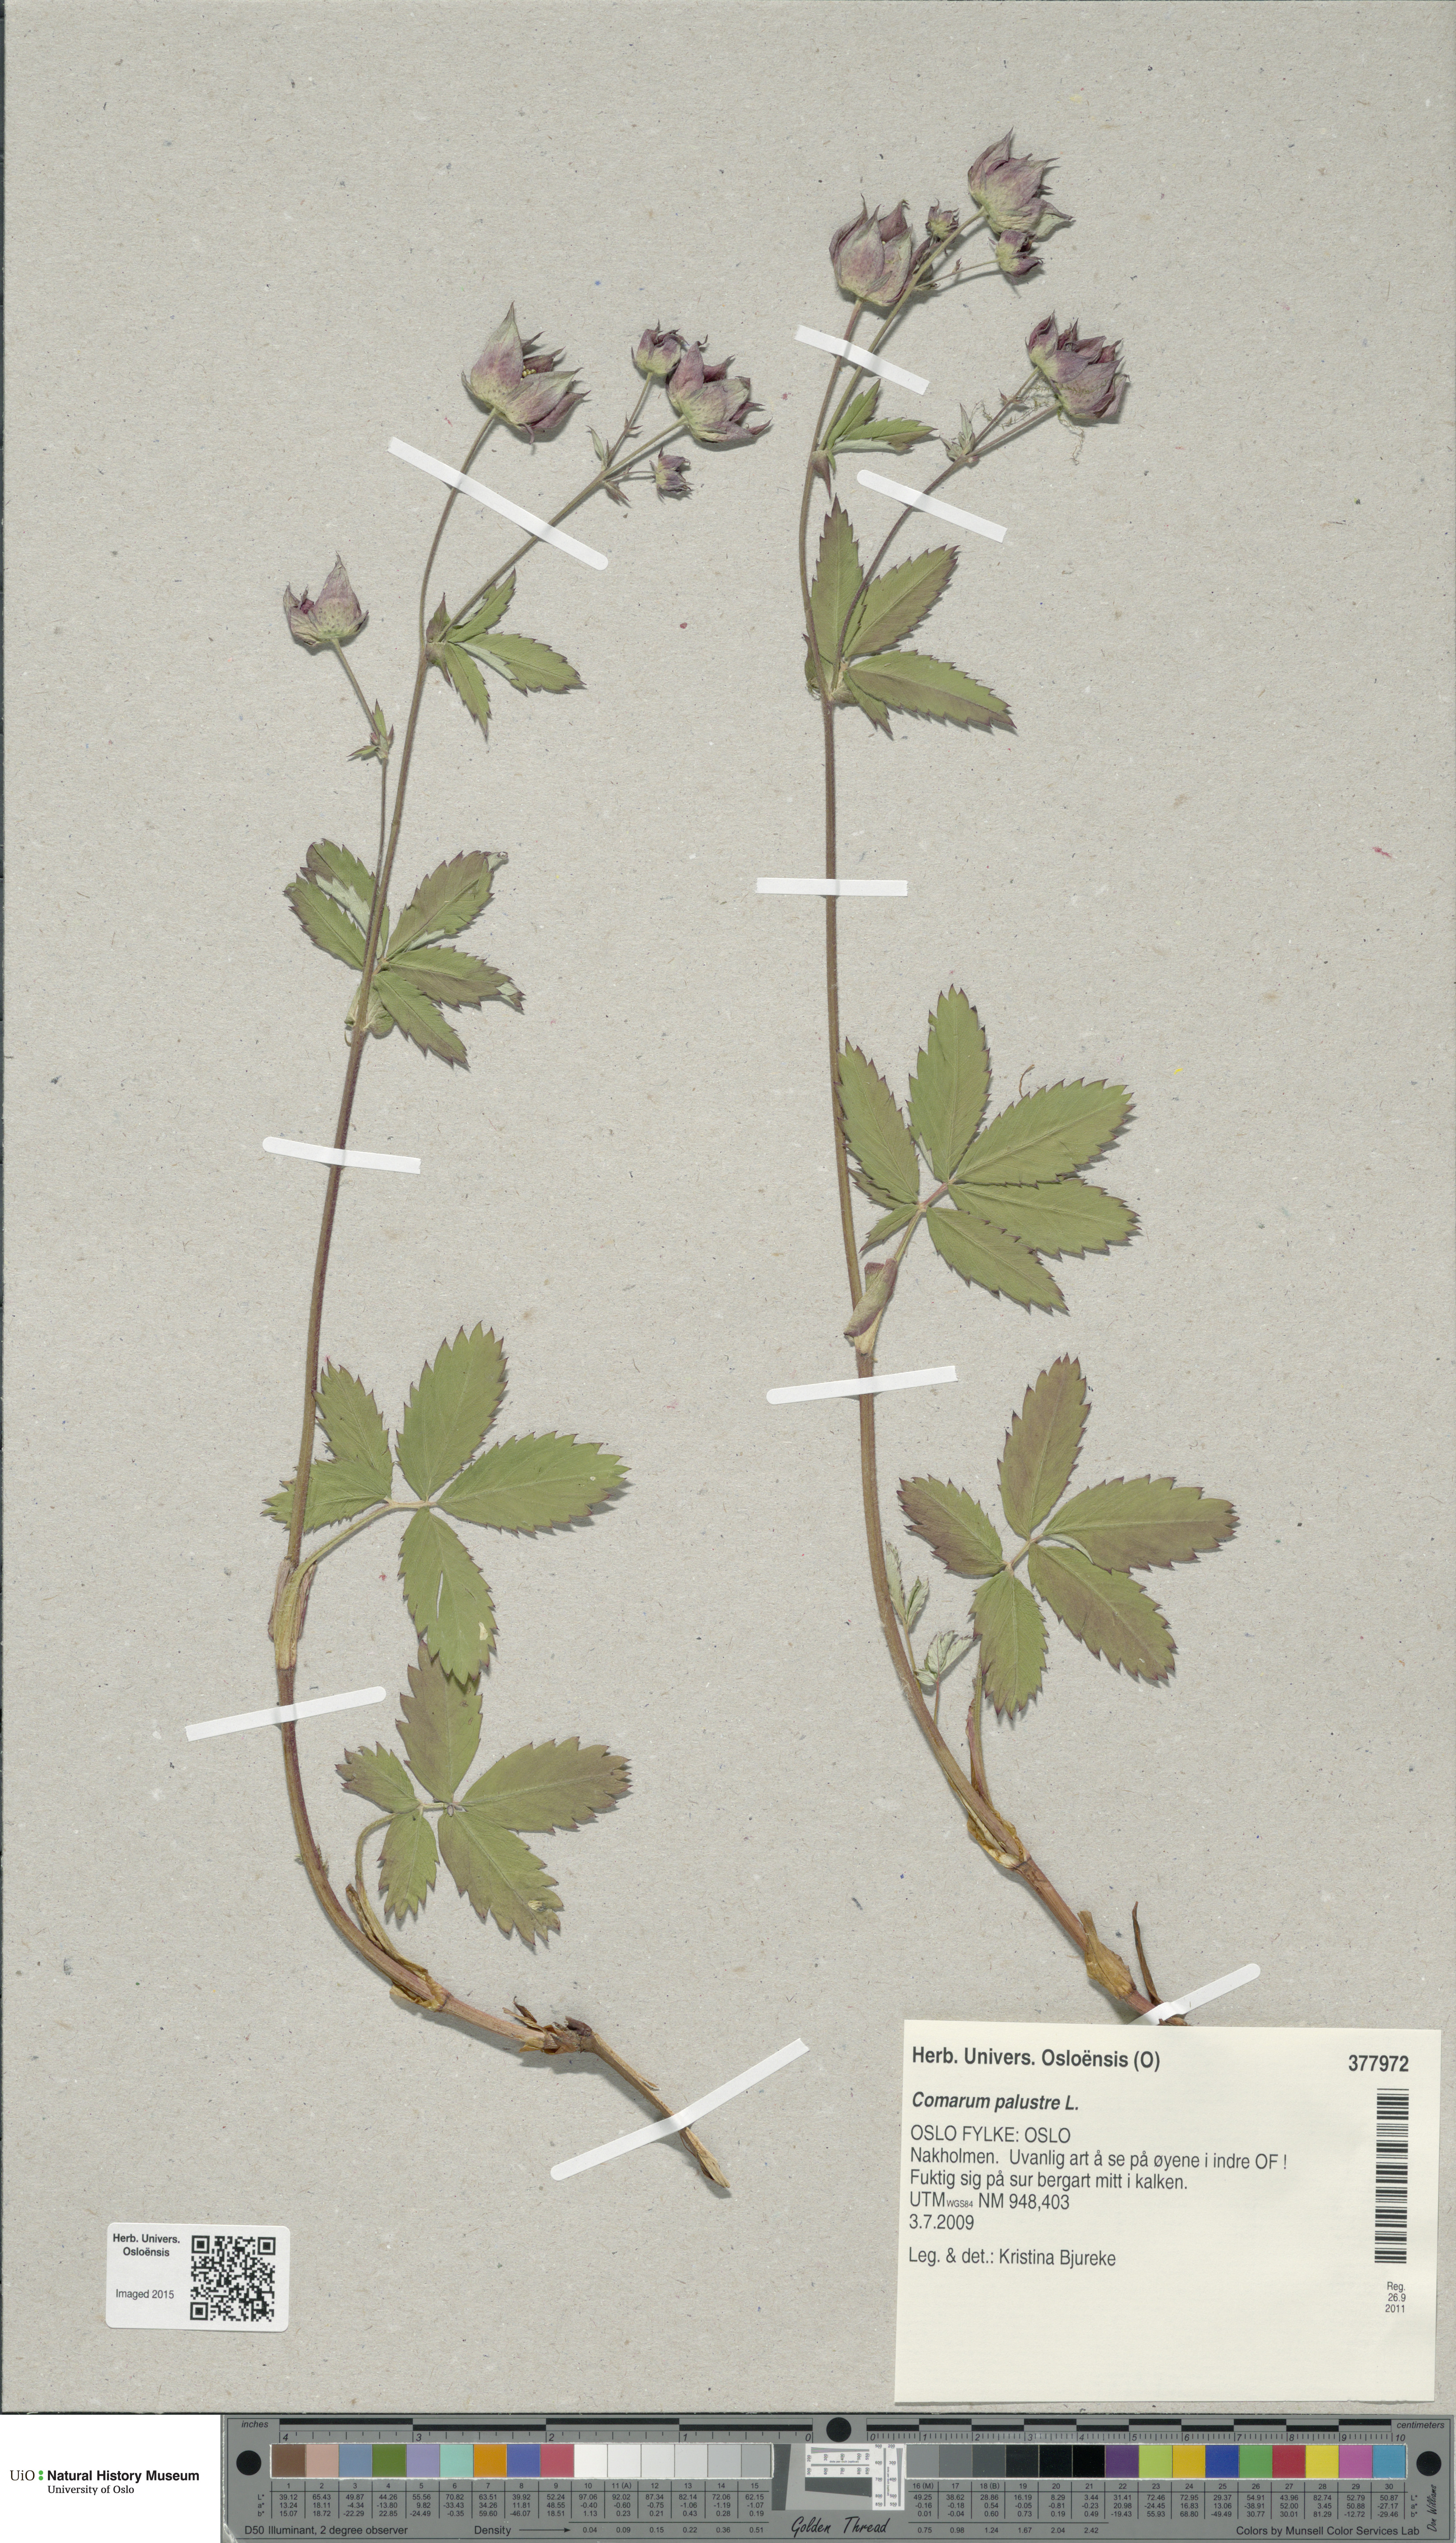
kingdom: Plantae
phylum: Tracheophyta
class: Magnoliopsida
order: Rosales
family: Rosaceae
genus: Comarum
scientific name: Comarum palustre
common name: Marsh cinquefoil
